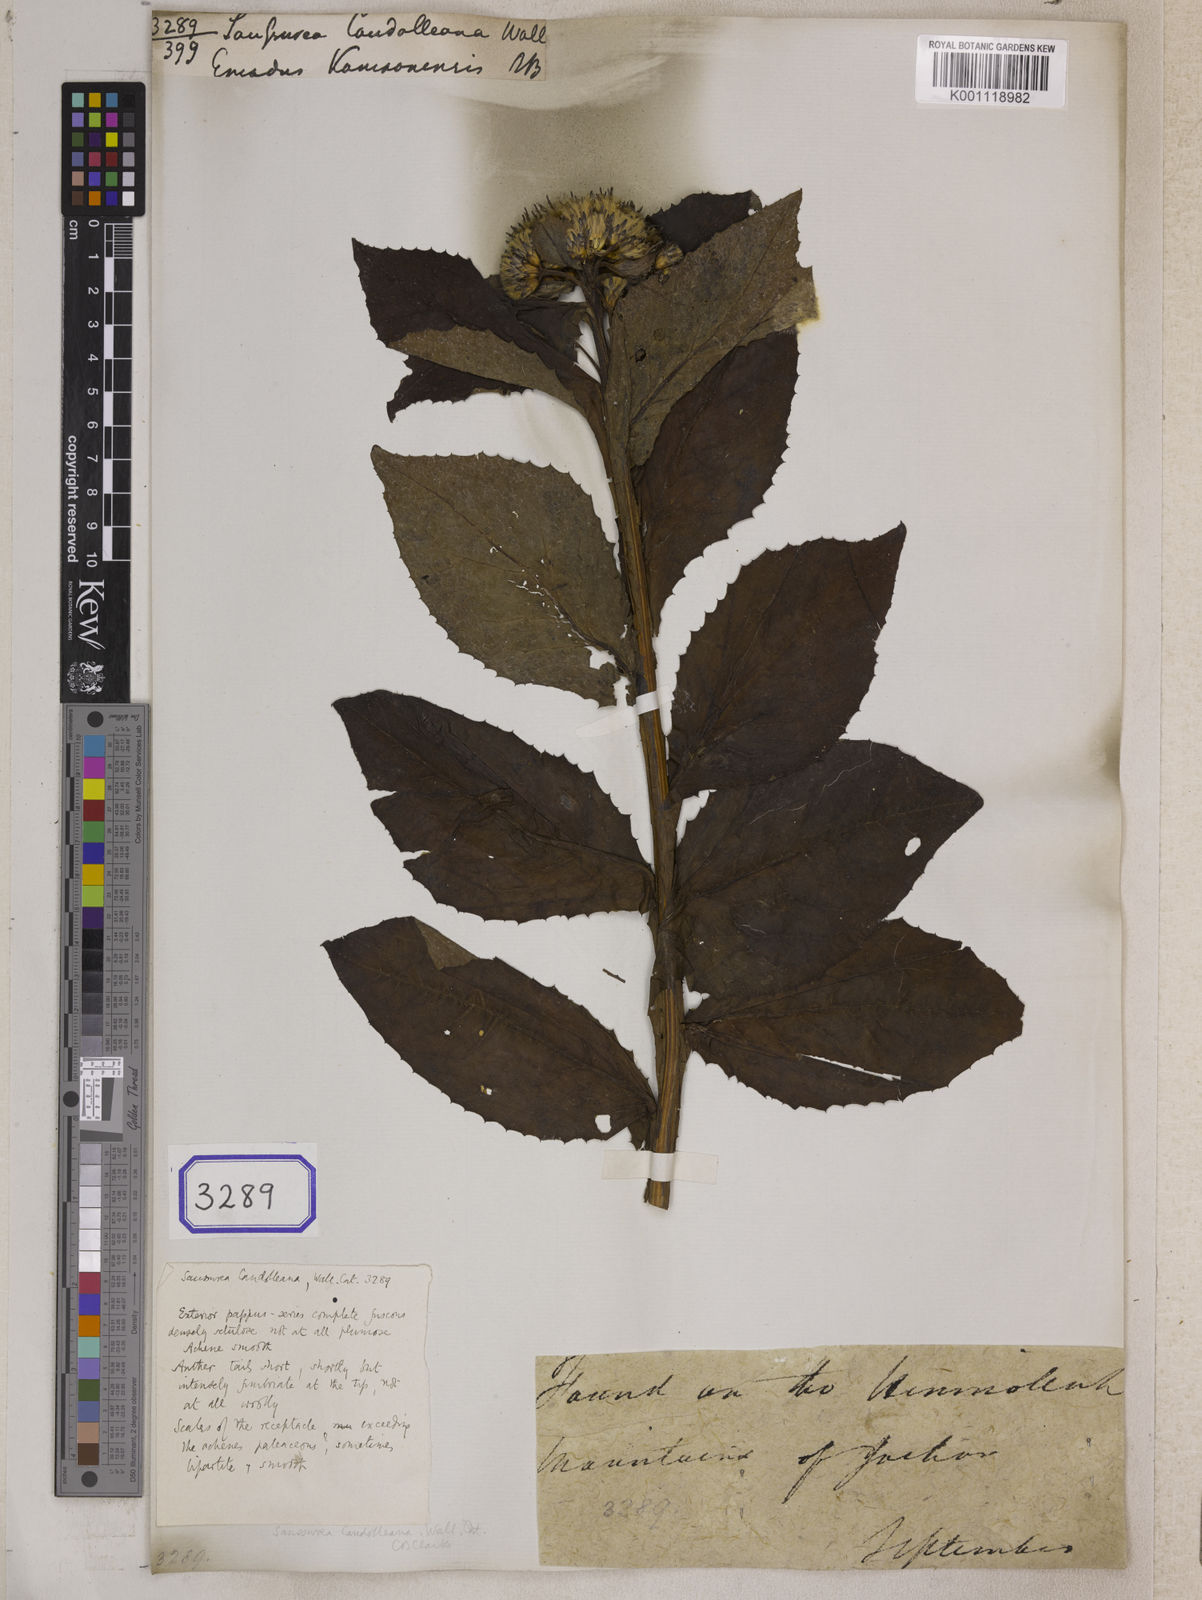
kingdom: Plantae
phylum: Tracheophyta
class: Magnoliopsida
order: Asterales
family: Asteraceae
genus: Saussurea
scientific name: Saussurea candolleana
